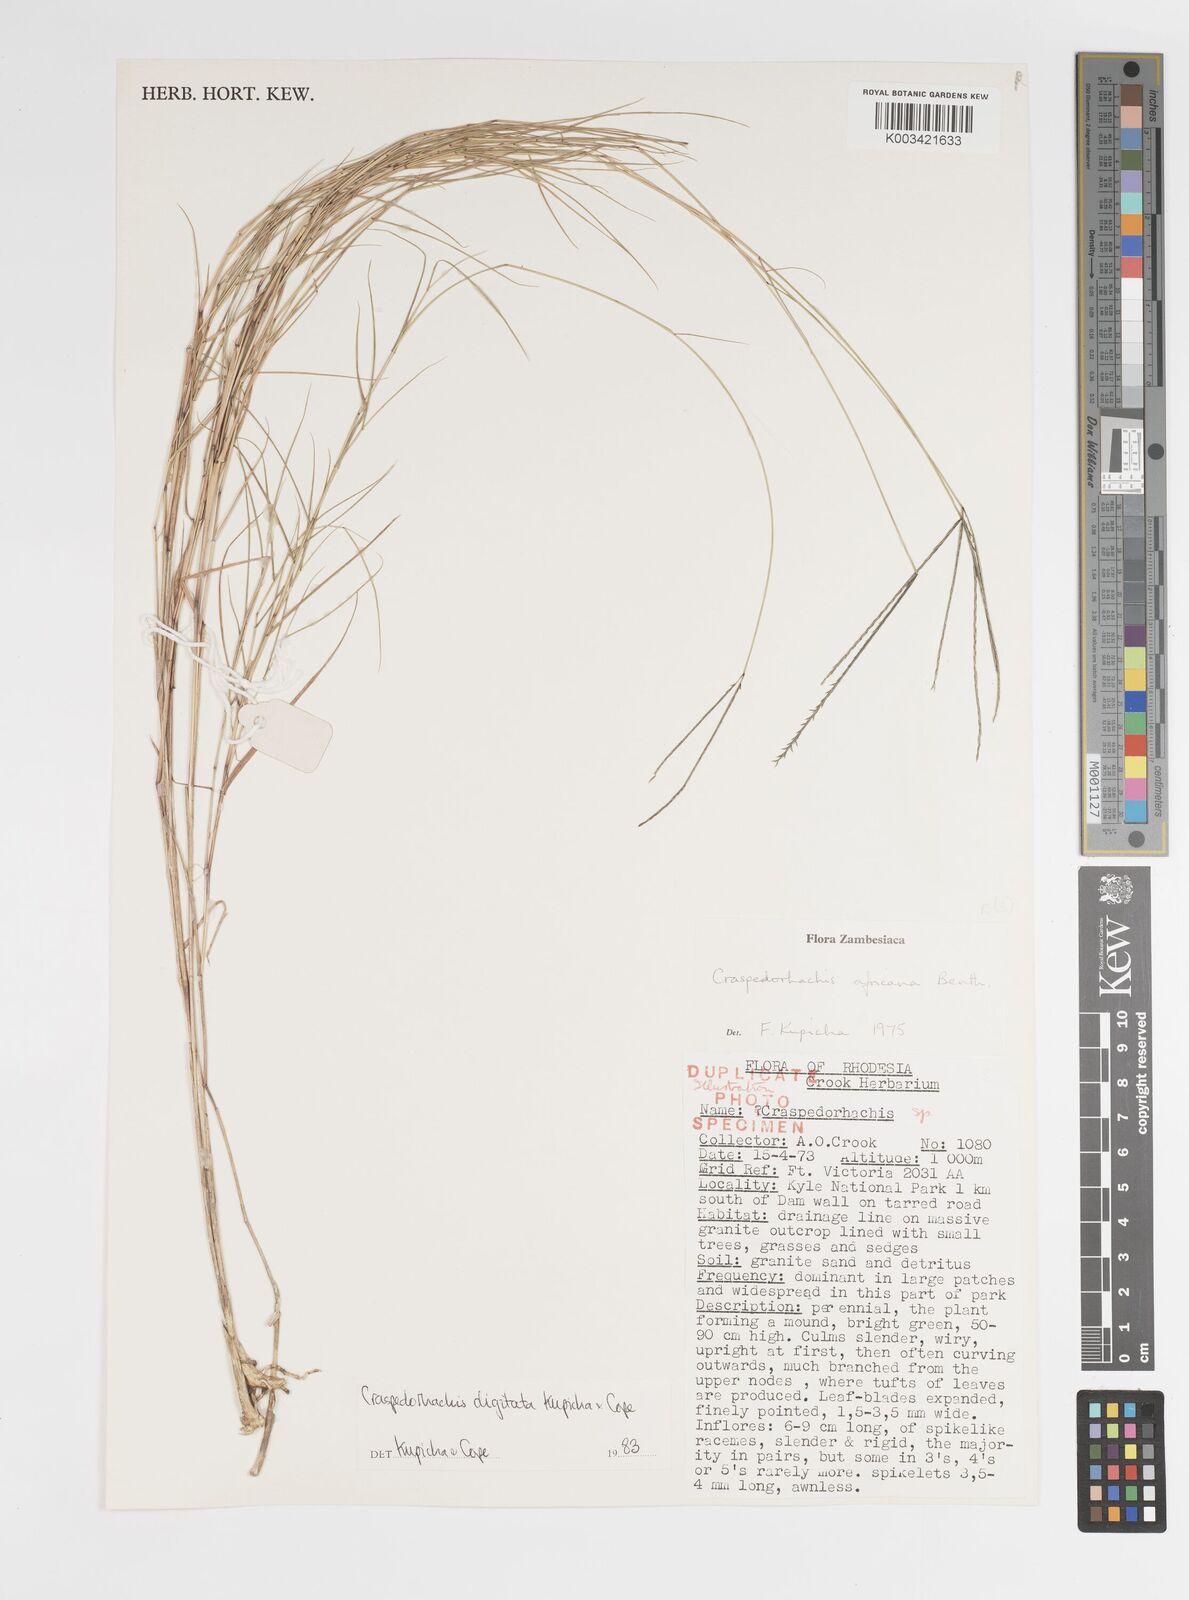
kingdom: Plantae
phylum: Tracheophyta
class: Liliopsida
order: Poales
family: Poaceae
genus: Craspedorhachis
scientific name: Craspedorhachis digitata
